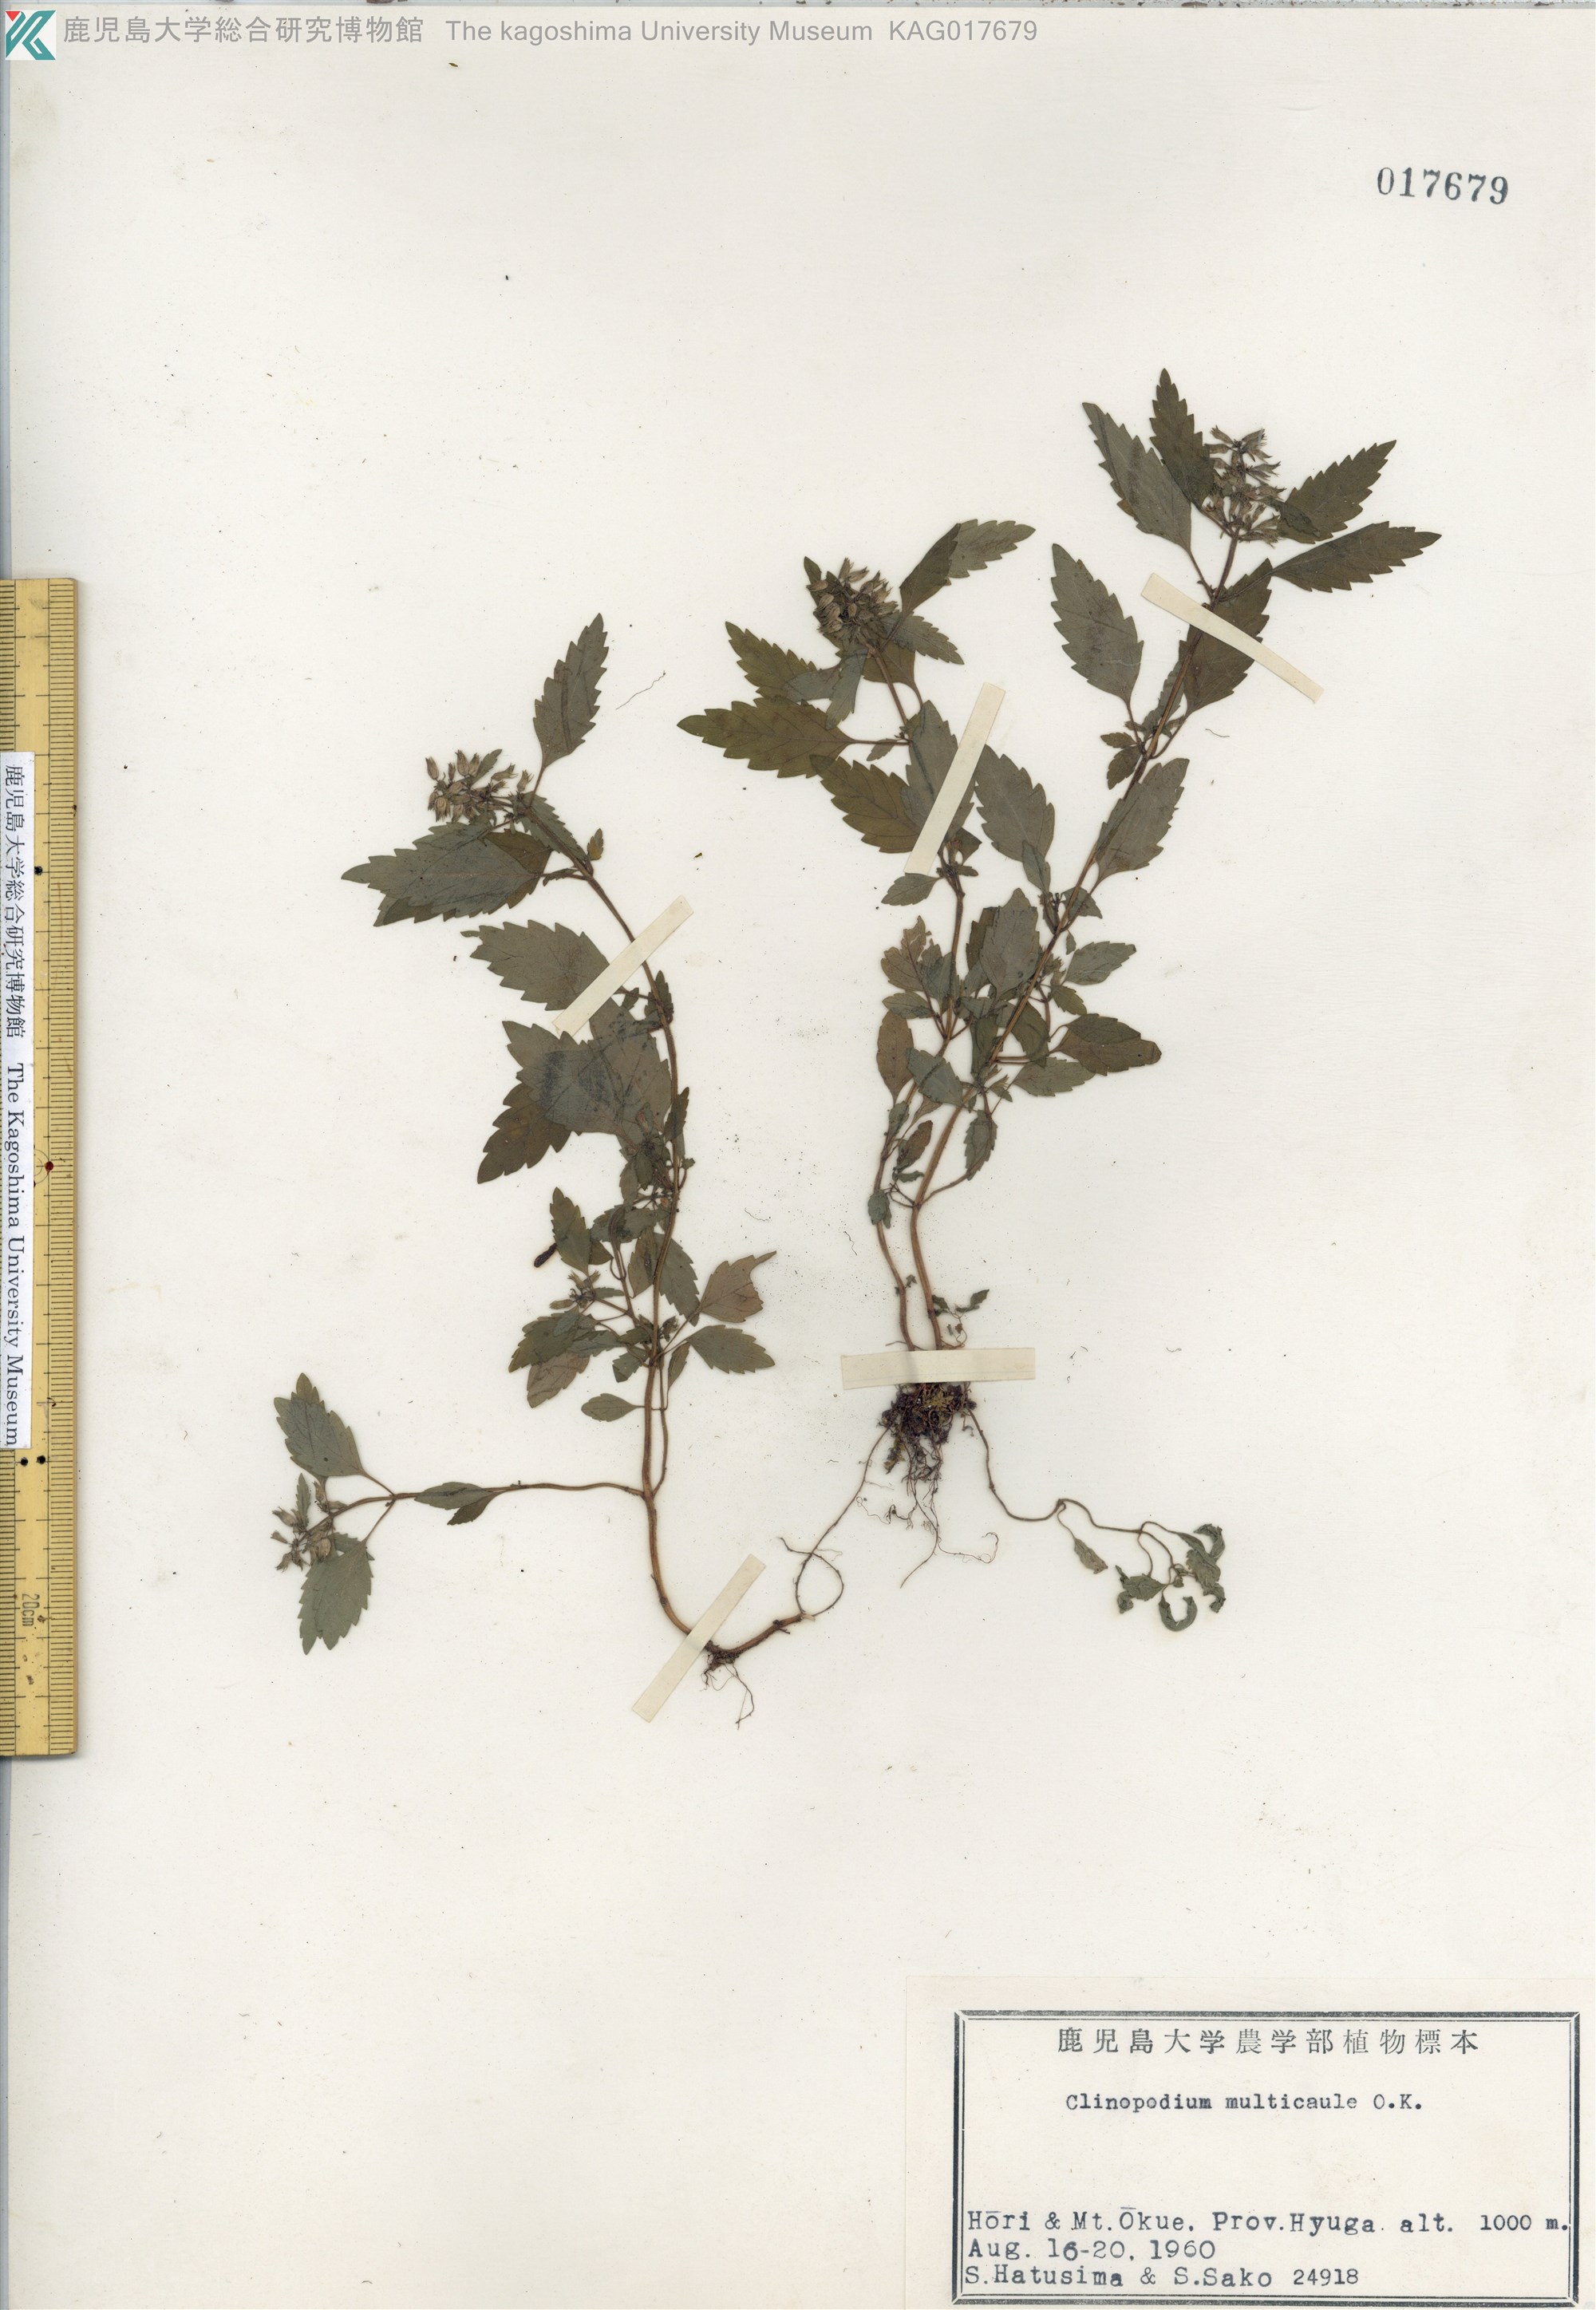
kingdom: Plantae
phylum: Tracheophyta
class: Magnoliopsida
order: Lamiales
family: Lamiaceae
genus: Clinopodium
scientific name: Clinopodium multicaule
